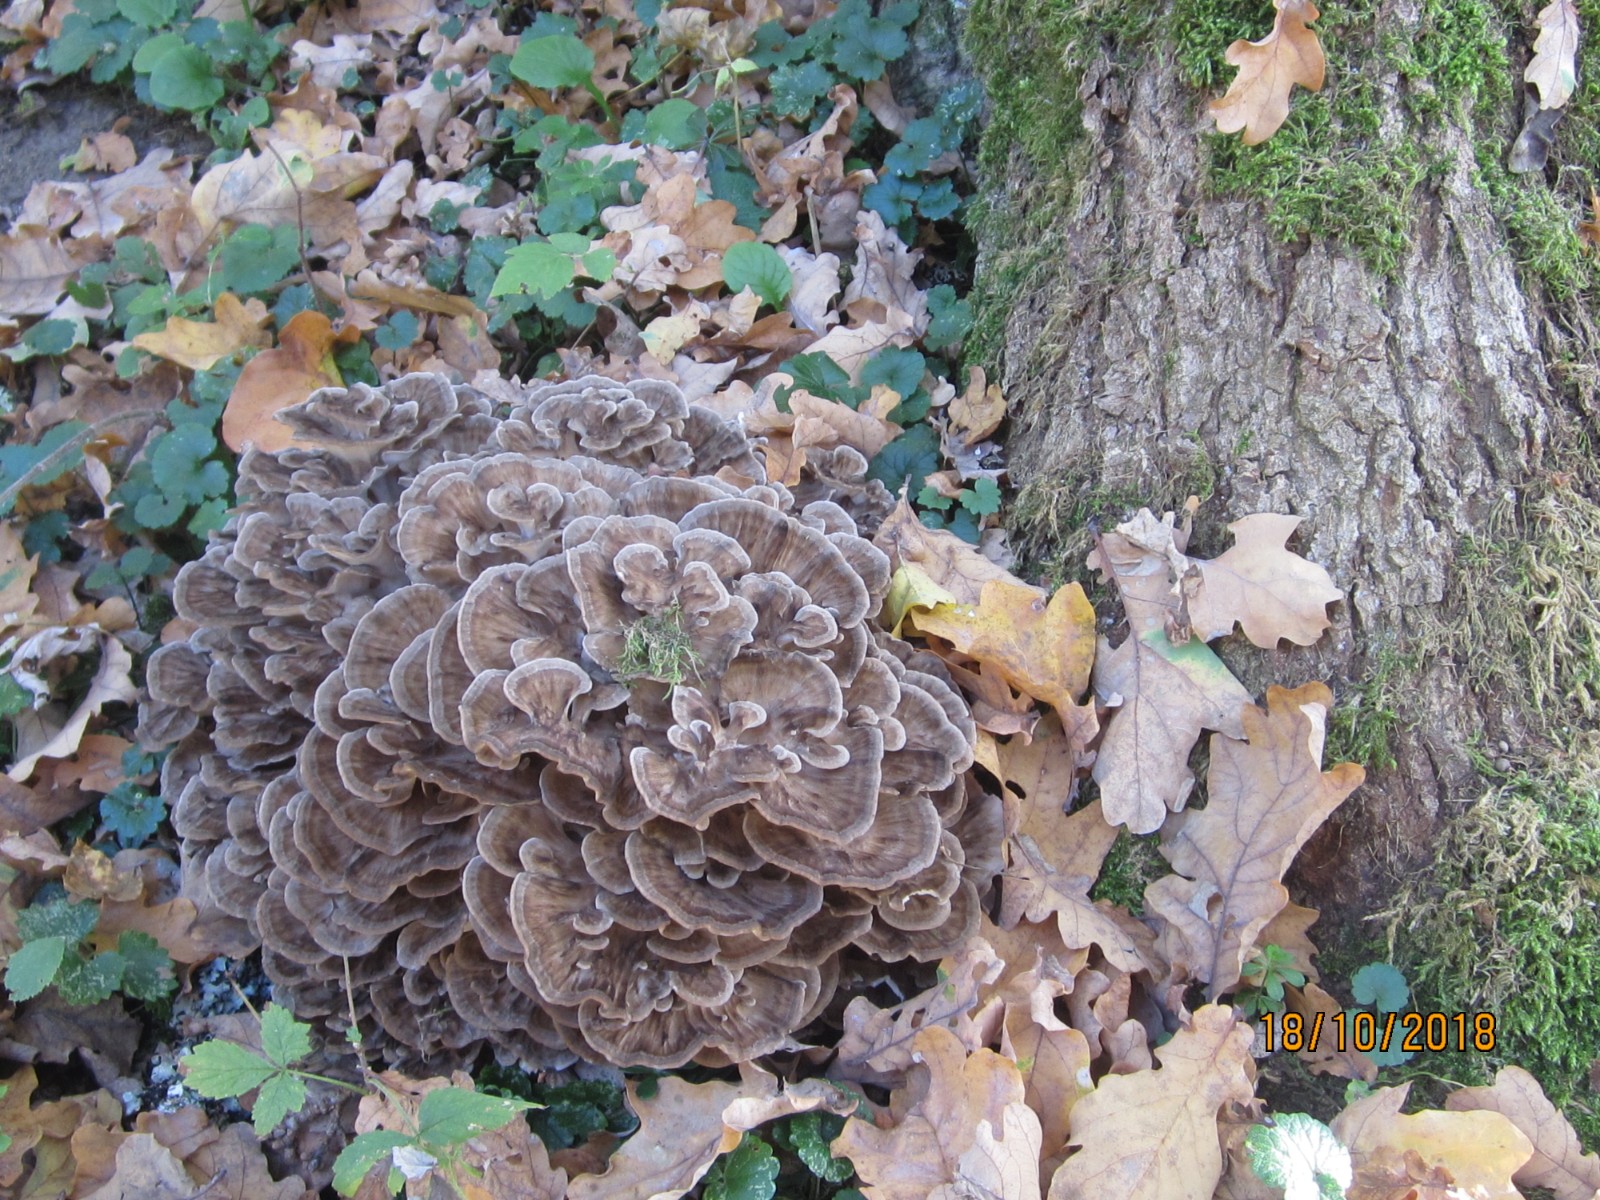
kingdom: Fungi
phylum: Basidiomycota
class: Agaricomycetes
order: Polyporales
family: Grifolaceae
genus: Grifola
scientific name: Grifola frondosa
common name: tueporesvamp
